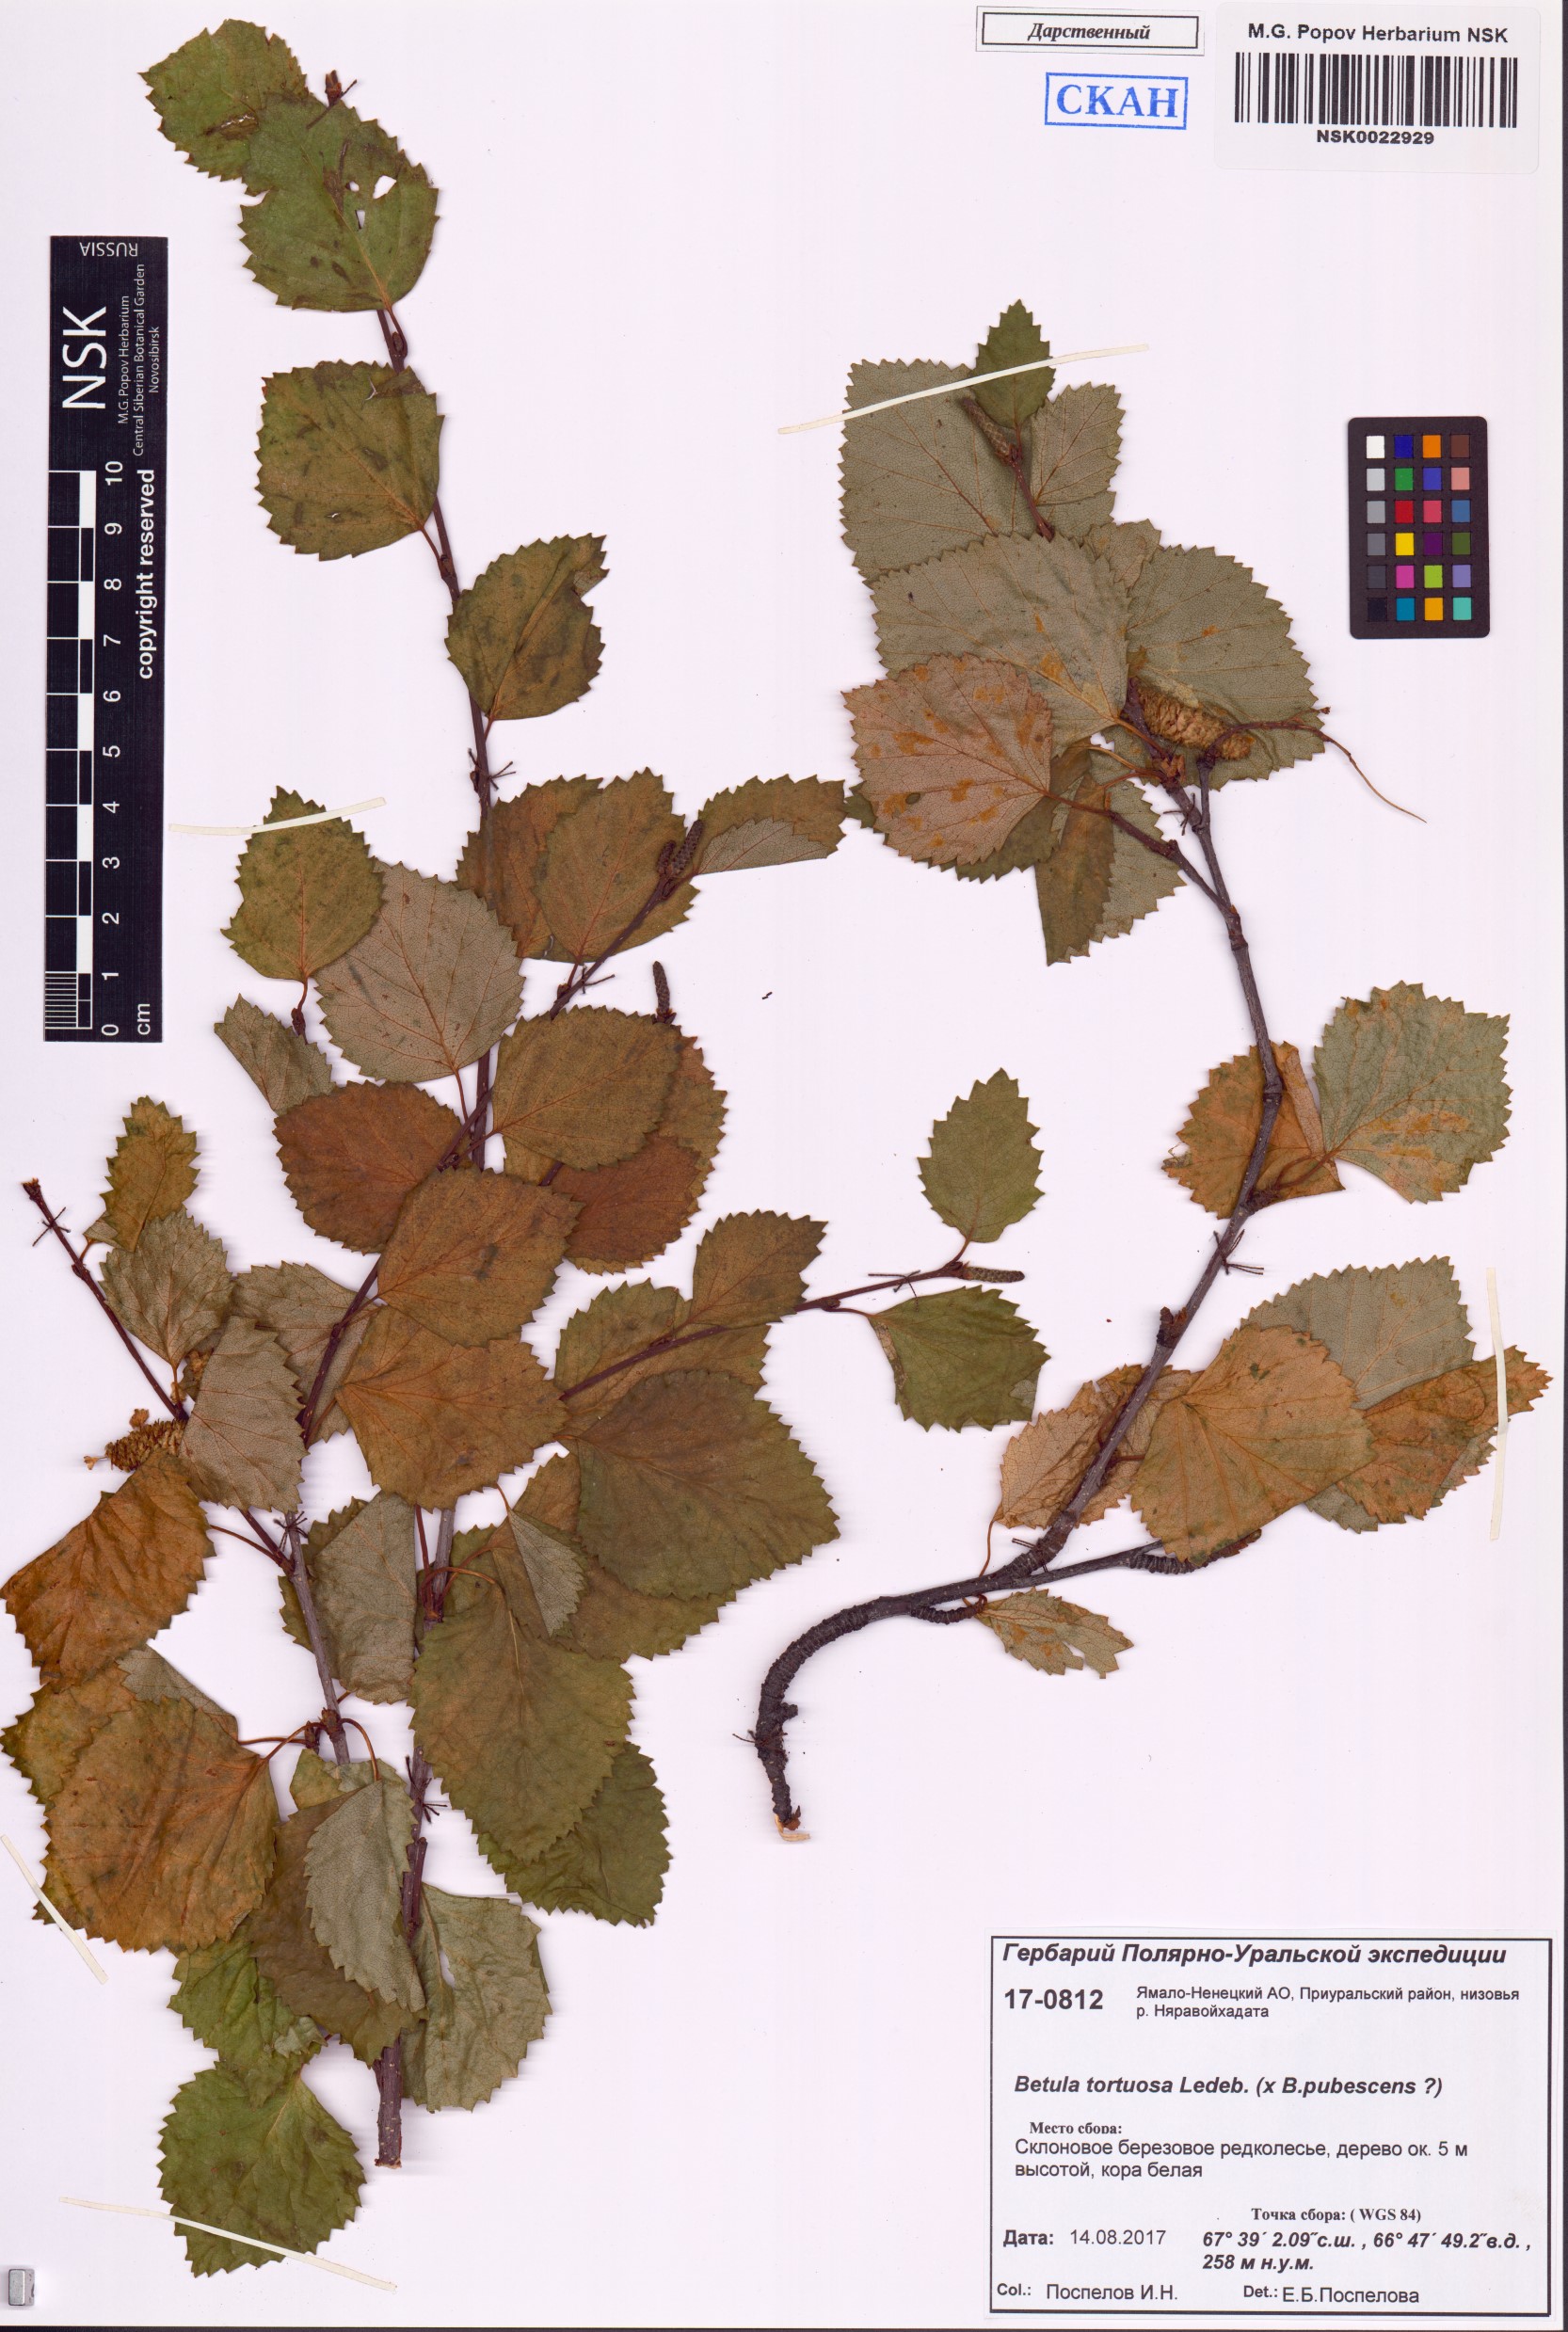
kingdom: Plantae
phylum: Tracheophyta
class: Magnoliopsida
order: Fagales
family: Betulaceae
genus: Betula
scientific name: Betula pubescens
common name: Downy birch
